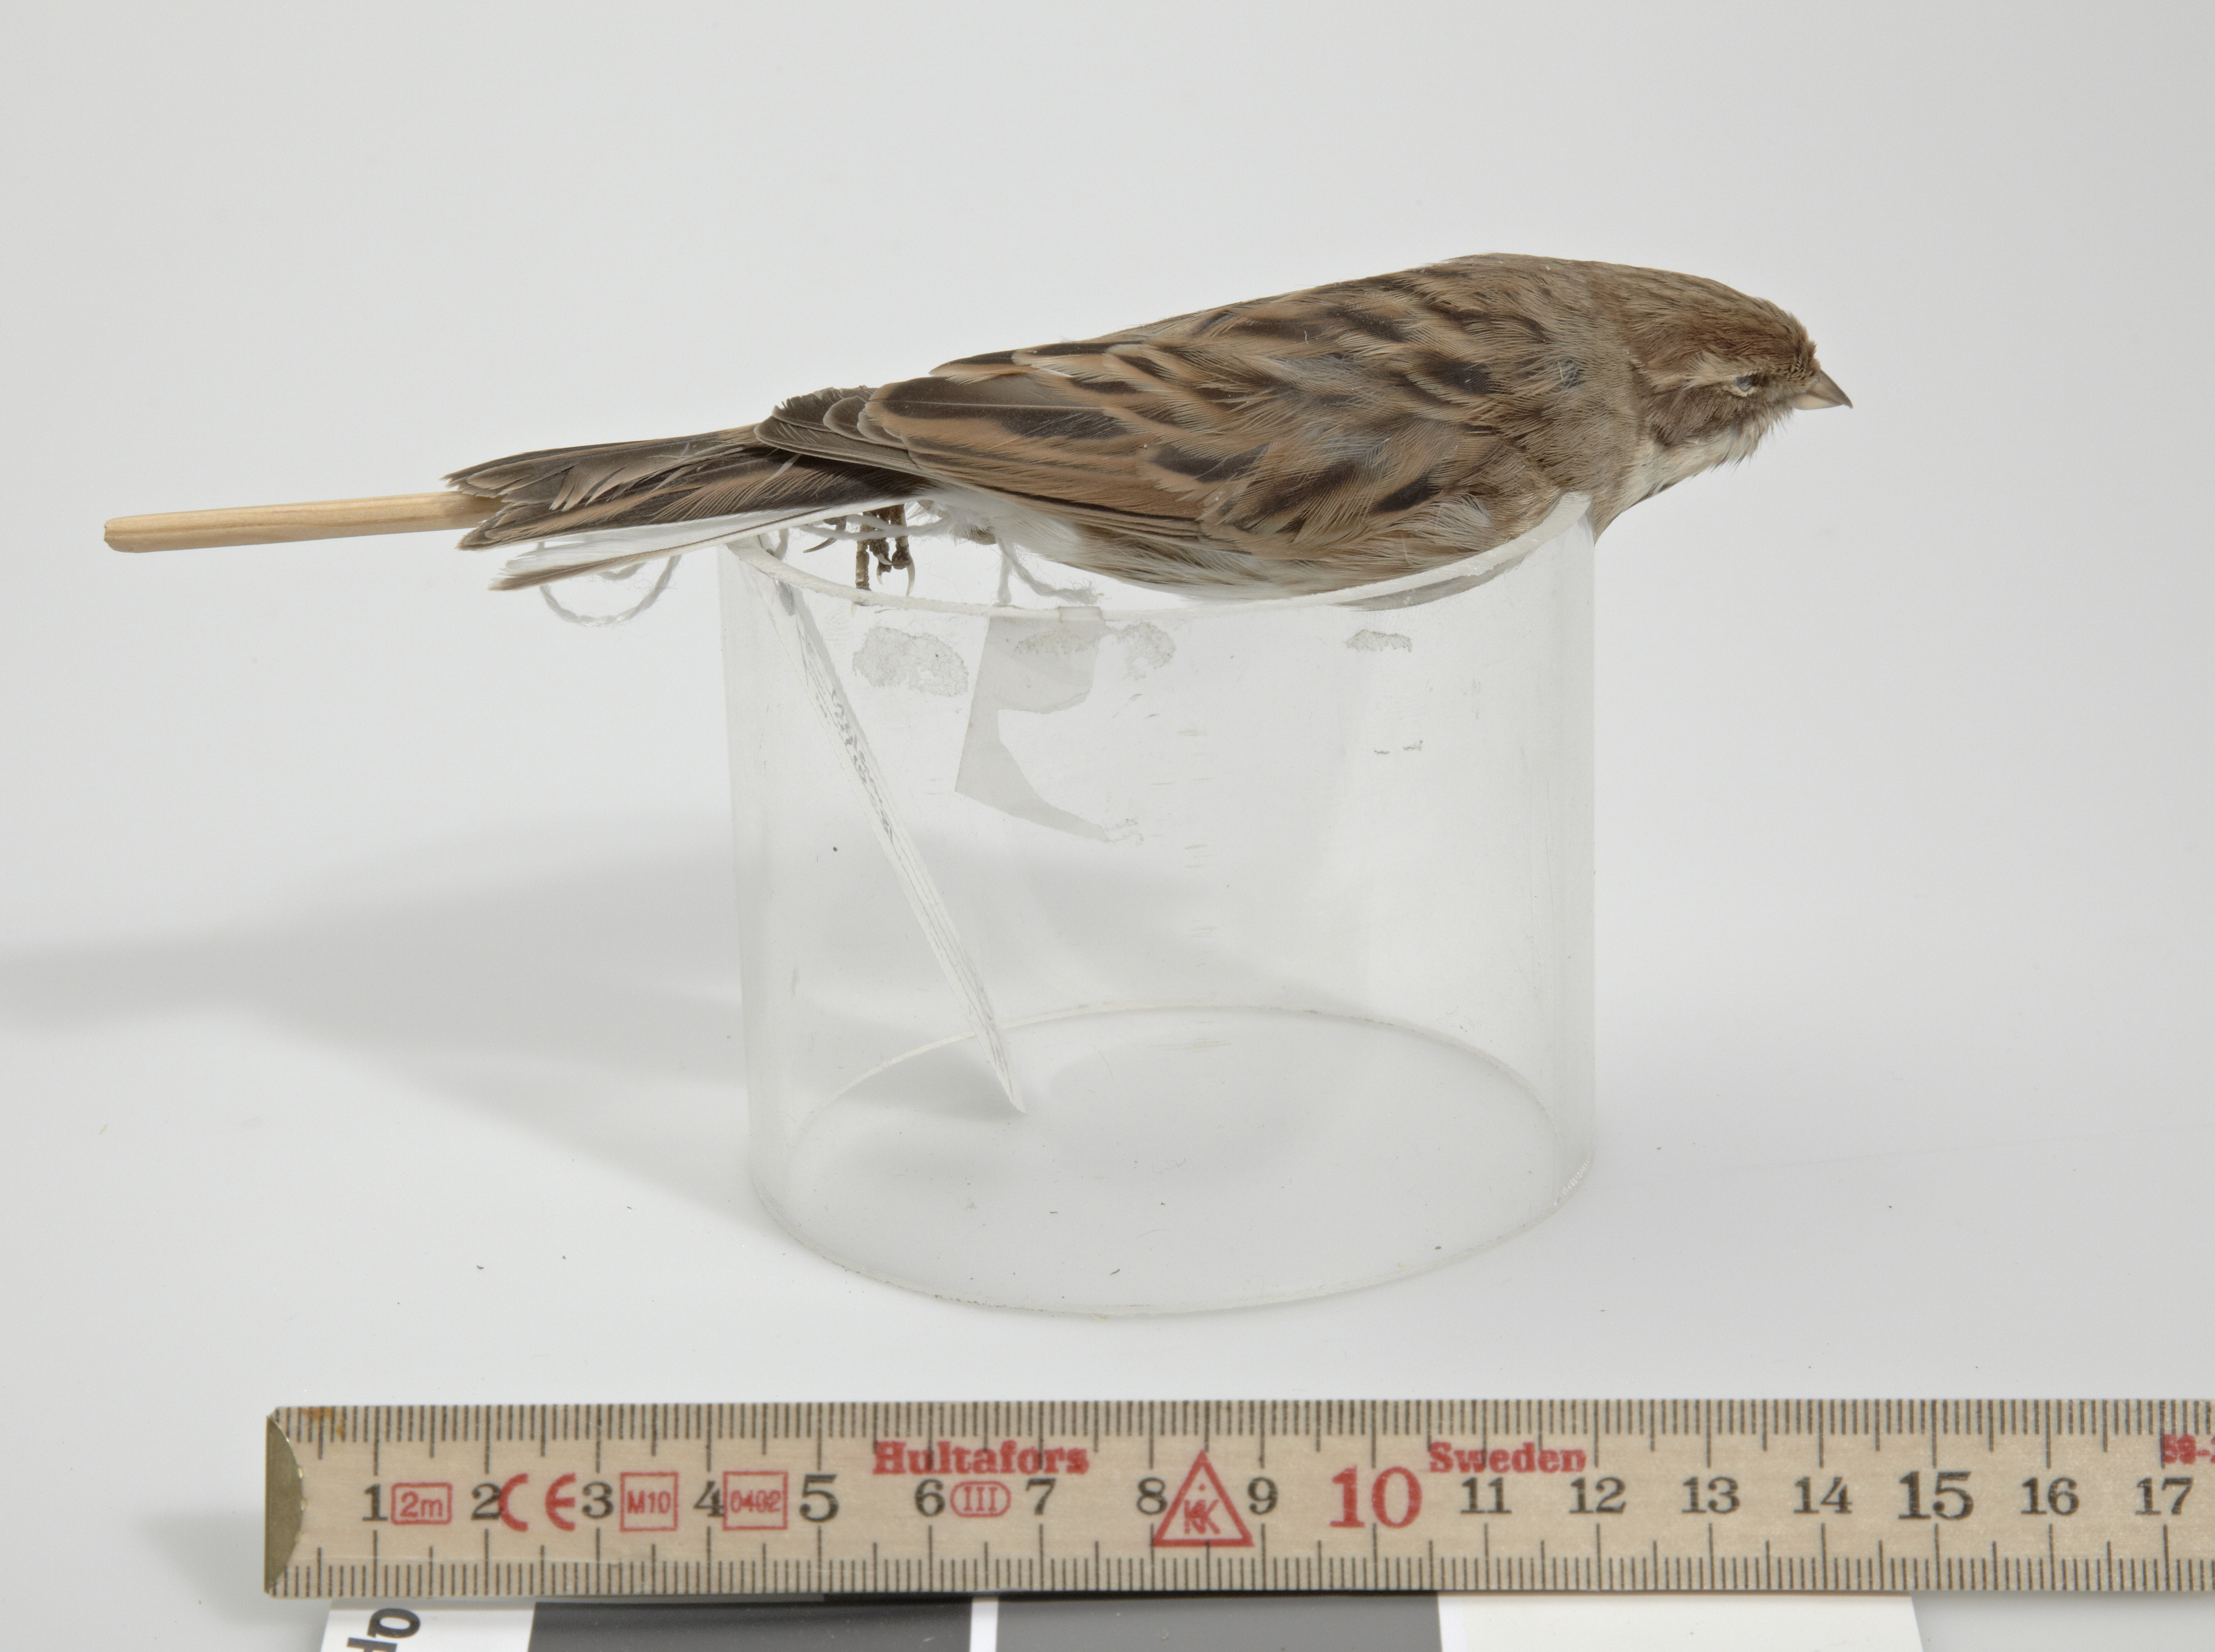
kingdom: Animalia
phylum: Chordata
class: Aves
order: Passeriformes
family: Emberizidae
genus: Emberiza
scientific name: Emberiza schoeniclus
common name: Reed bunting
